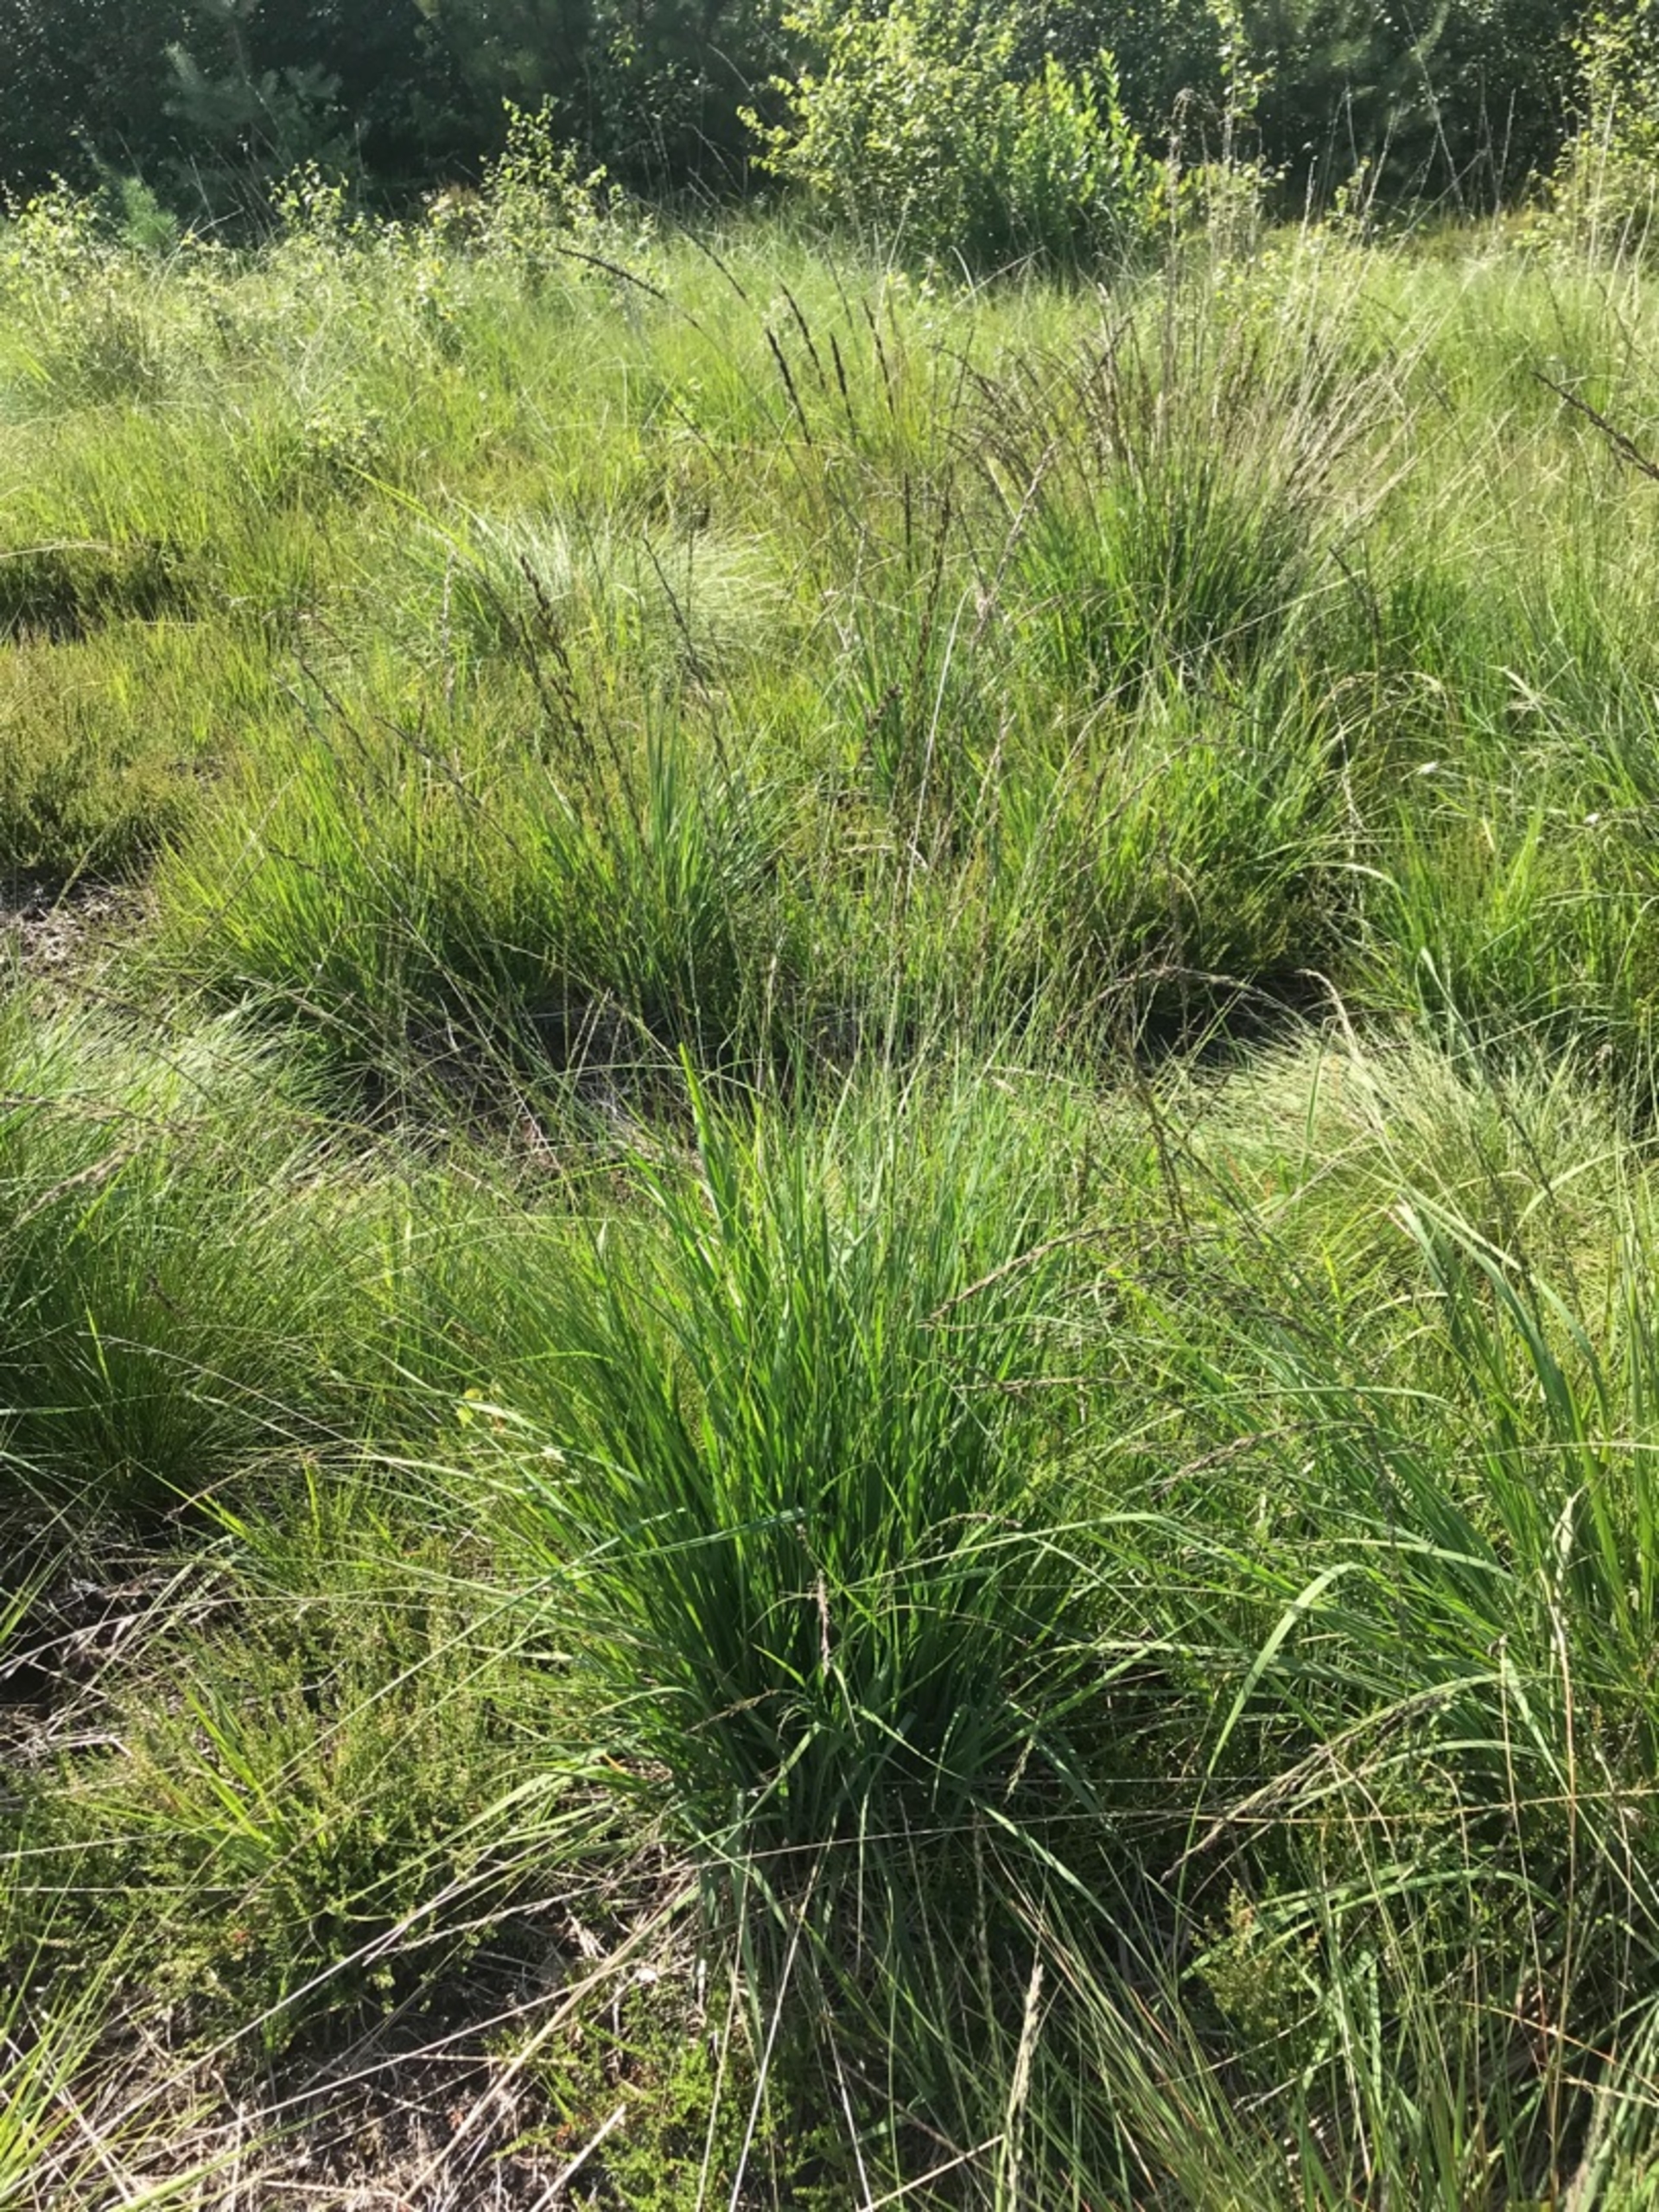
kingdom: Plantae
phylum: Tracheophyta
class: Liliopsida
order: Poales
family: Poaceae
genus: Molinia
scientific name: Molinia caerulea
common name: Blåtop
